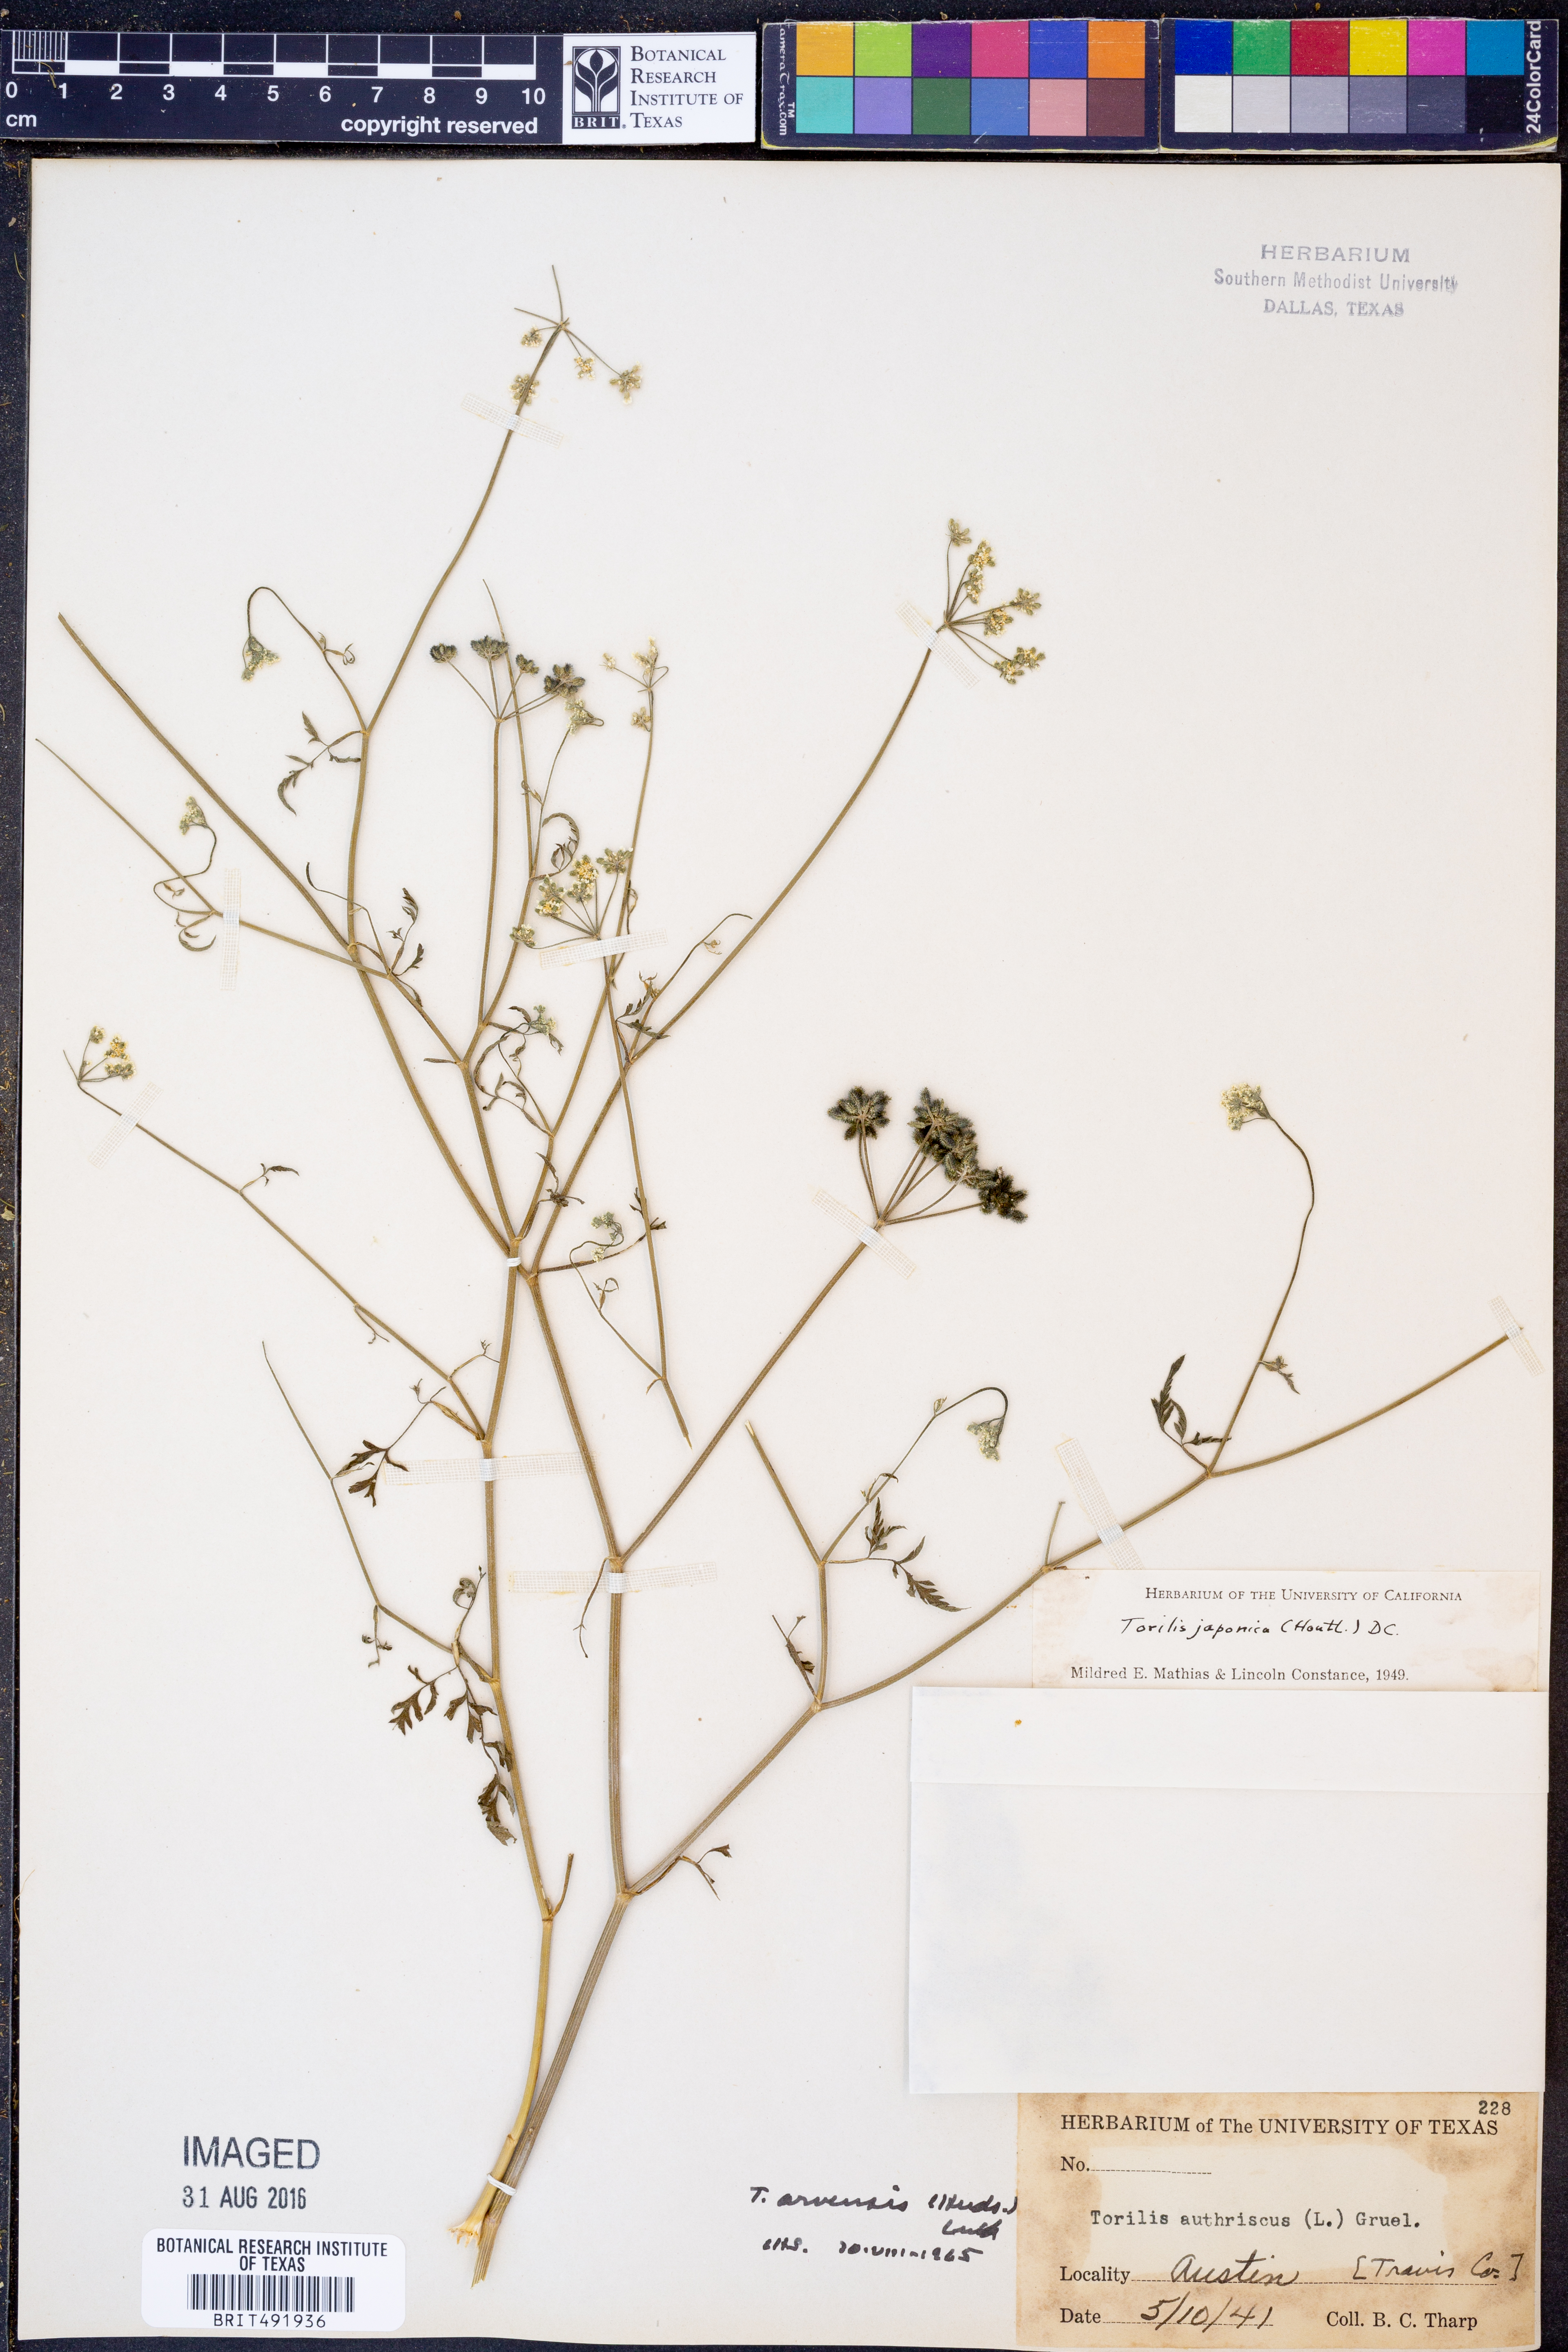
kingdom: Plantae
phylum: Tracheophyta
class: Magnoliopsida
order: Apiales
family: Apiaceae
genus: Torilis
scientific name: Torilis arvensis
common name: Spreading hedge-parsley
